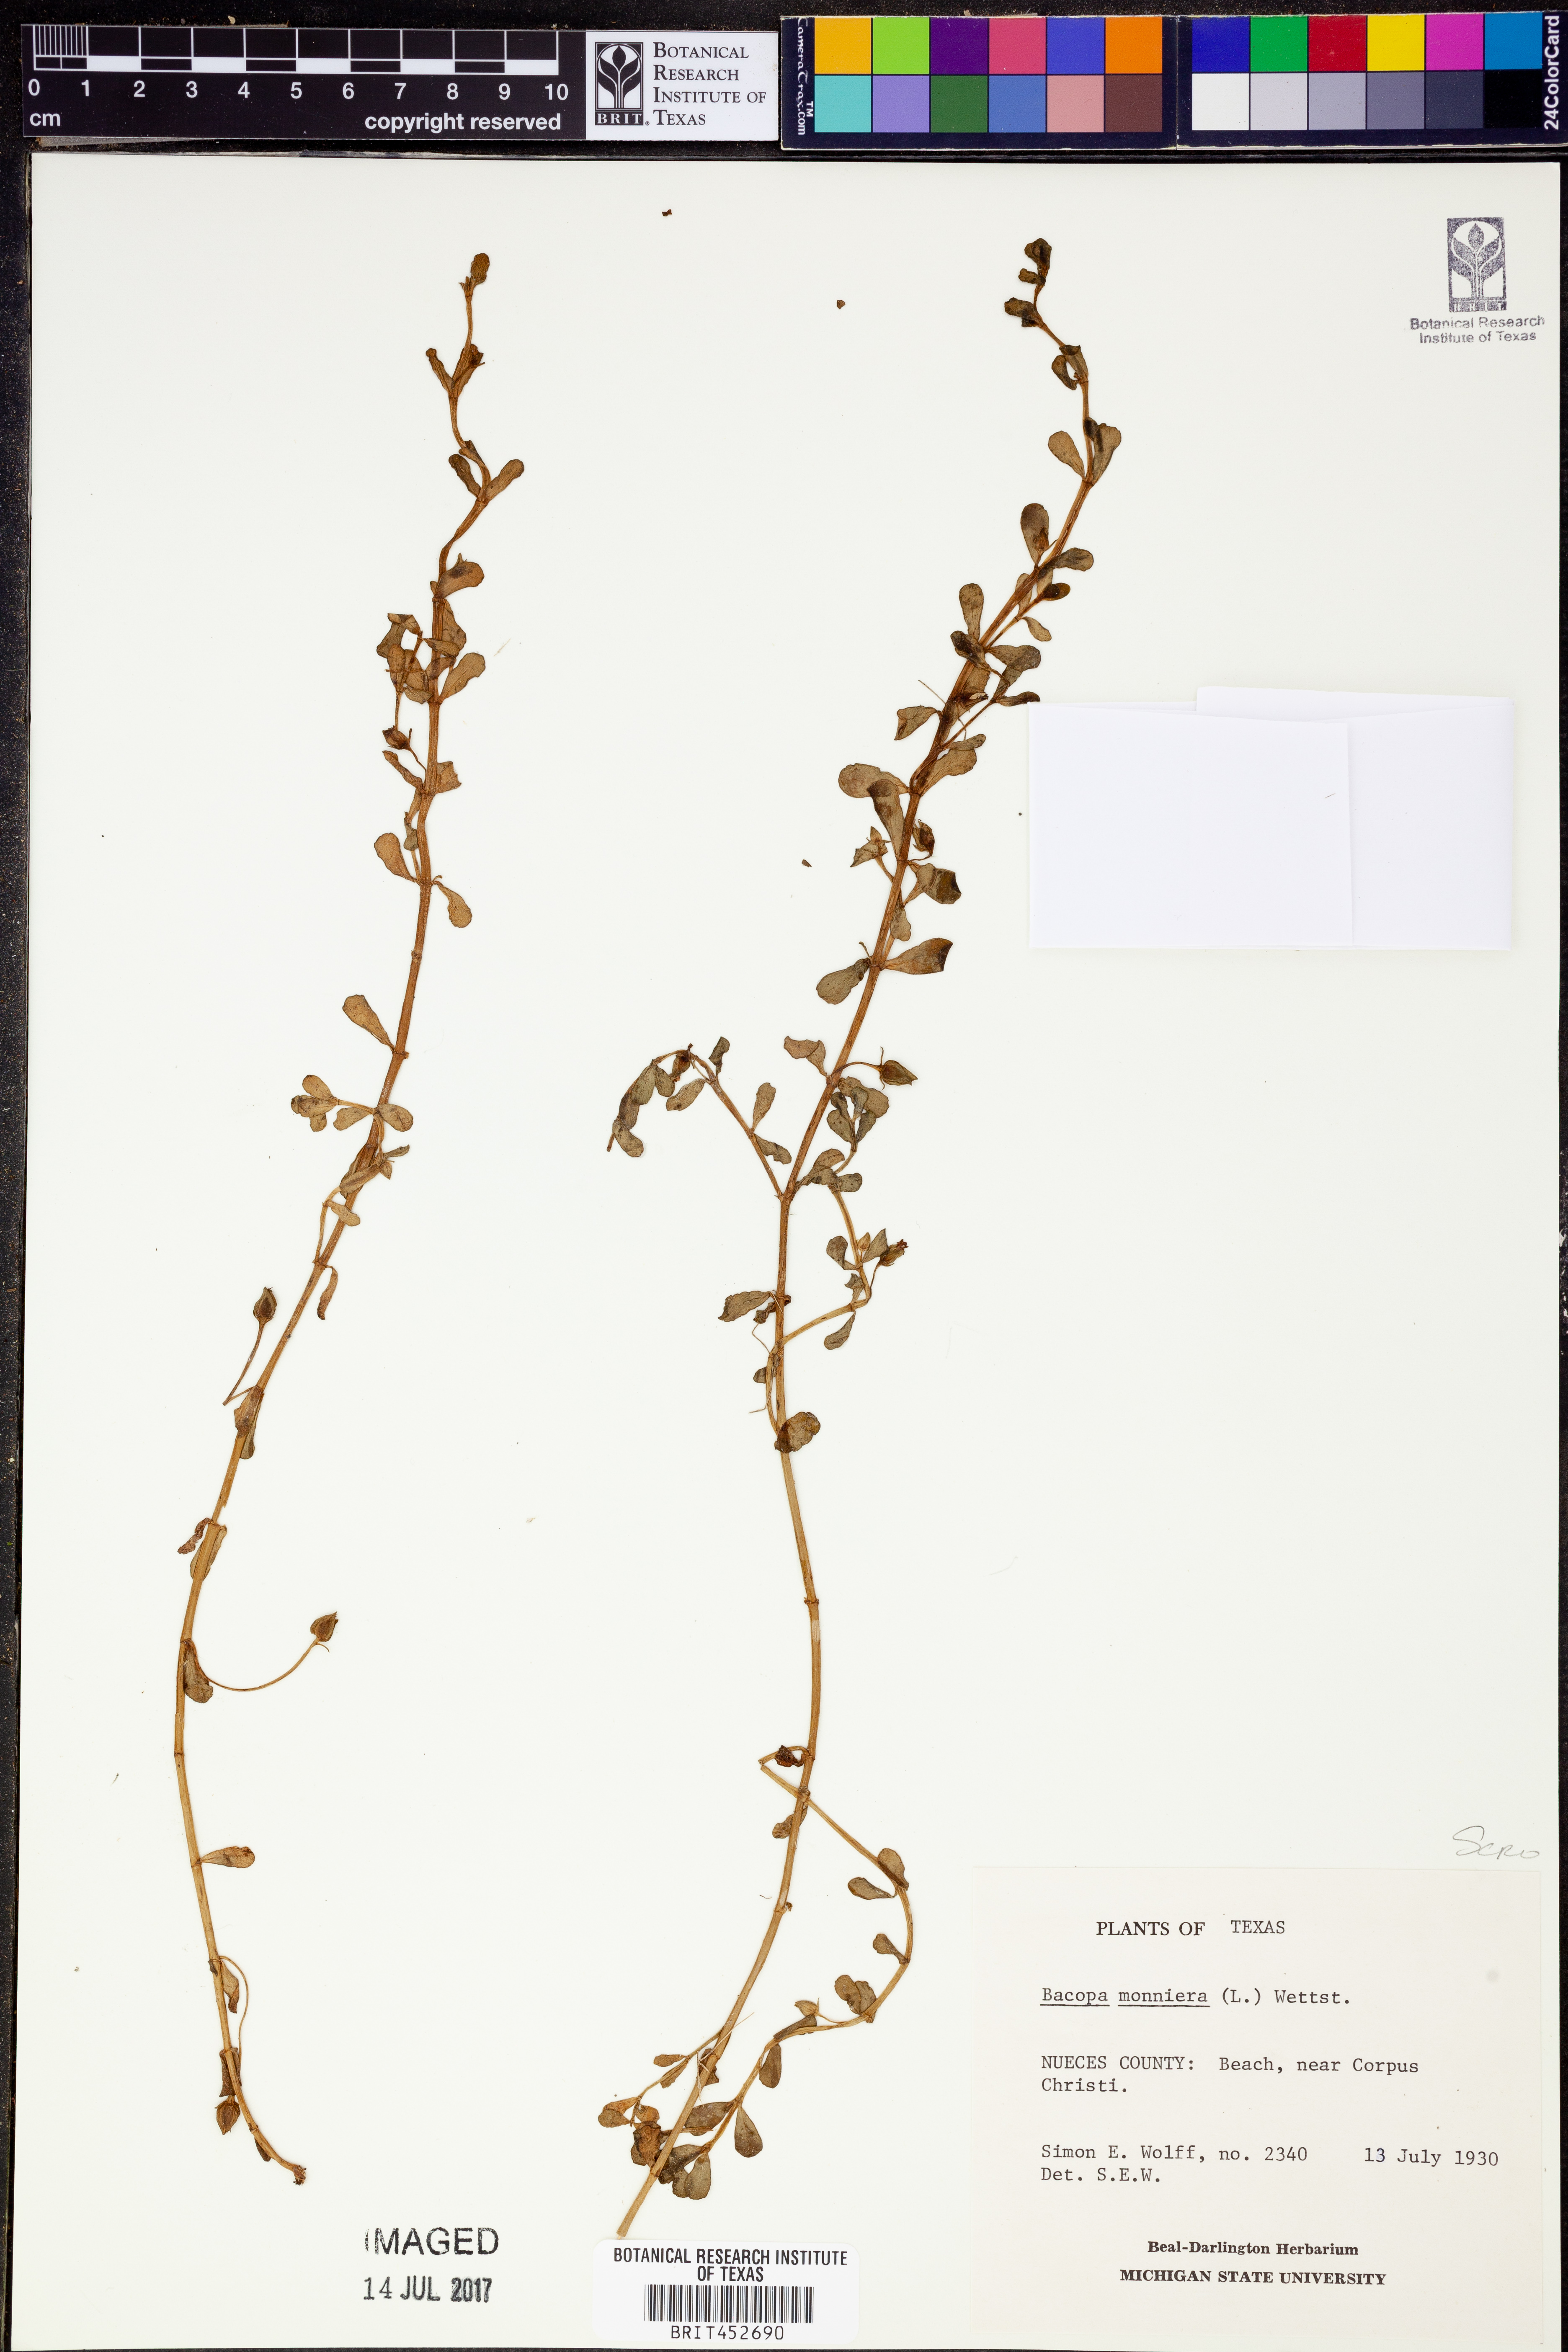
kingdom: Plantae
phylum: Tracheophyta
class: Magnoliopsida
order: Lamiales
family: Plantaginaceae
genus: Bacopa
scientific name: Bacopa monnieri
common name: Indian-pennywort
